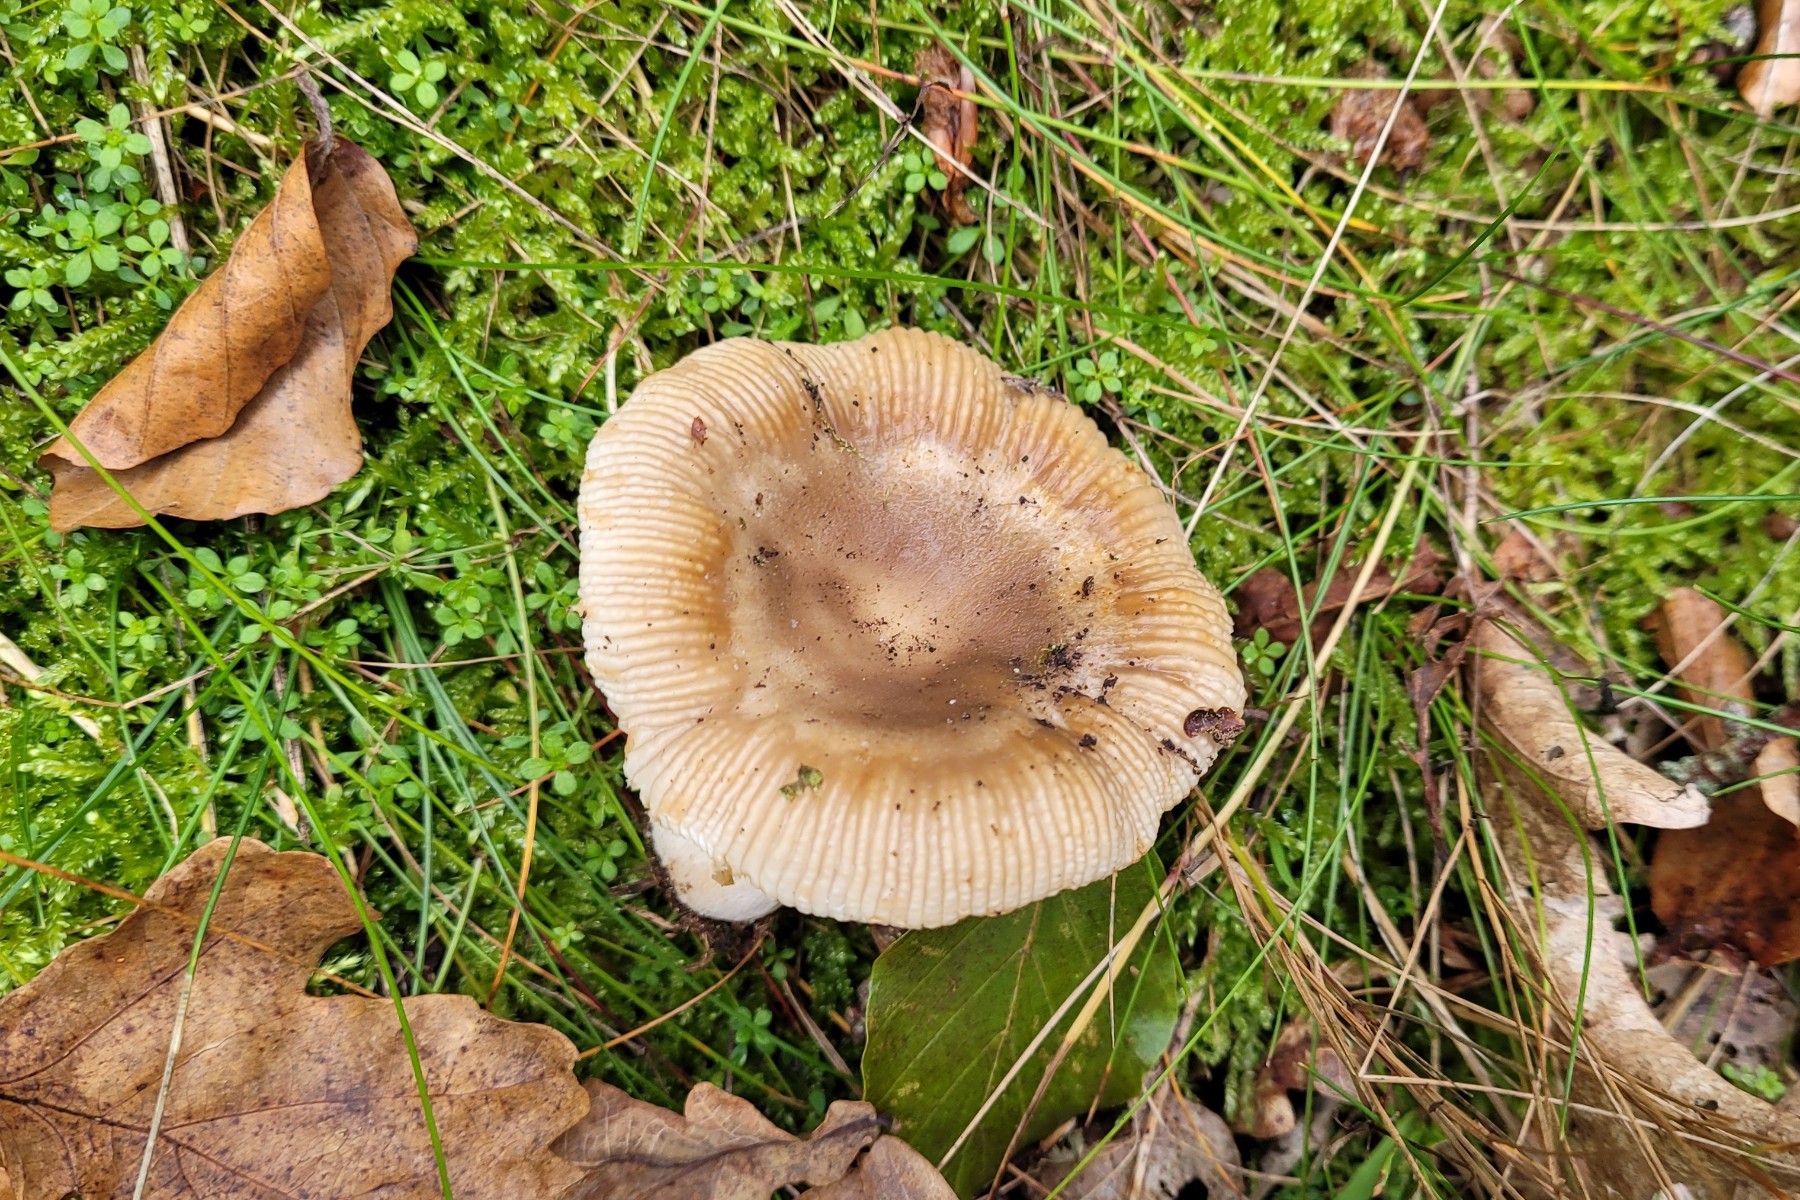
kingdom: Fungi
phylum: Basidiomycota
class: Agaricomycetes
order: Russulales
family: Russulaceae
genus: Russula
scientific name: Russula amoenolens
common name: skarp kam-skørhat
